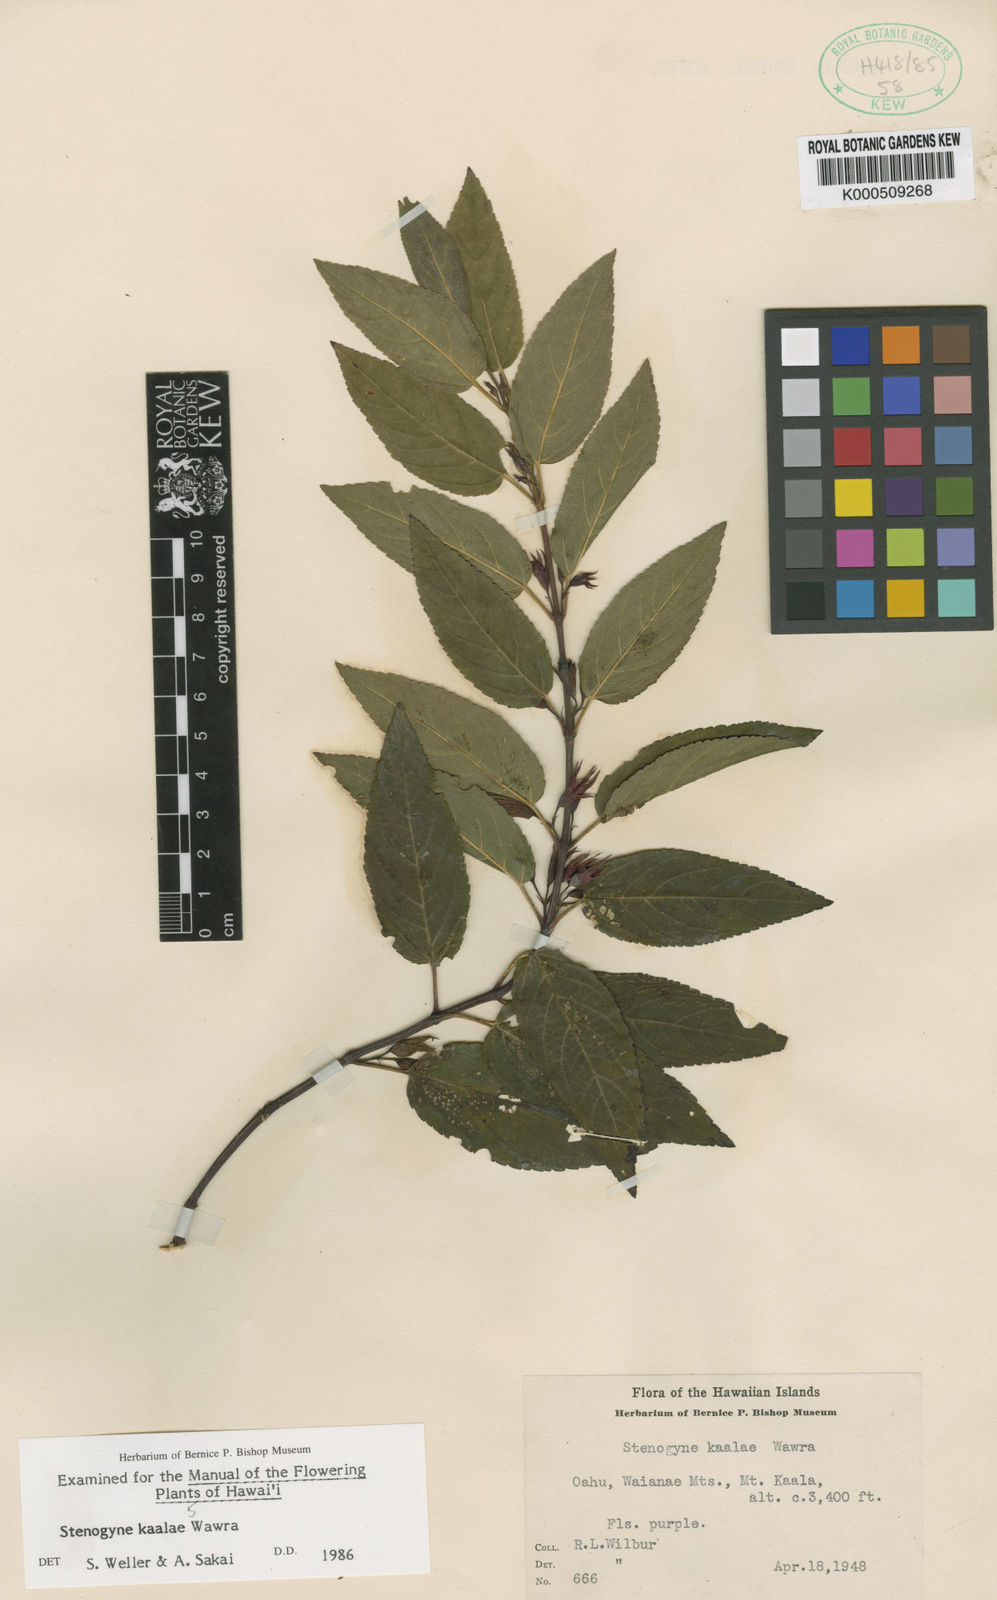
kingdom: Plantae
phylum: Tracheophyta
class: Magnoliopsida
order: Lamiales
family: Lamiaceae
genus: Stenogyne
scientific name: Stenogyne kaalae
